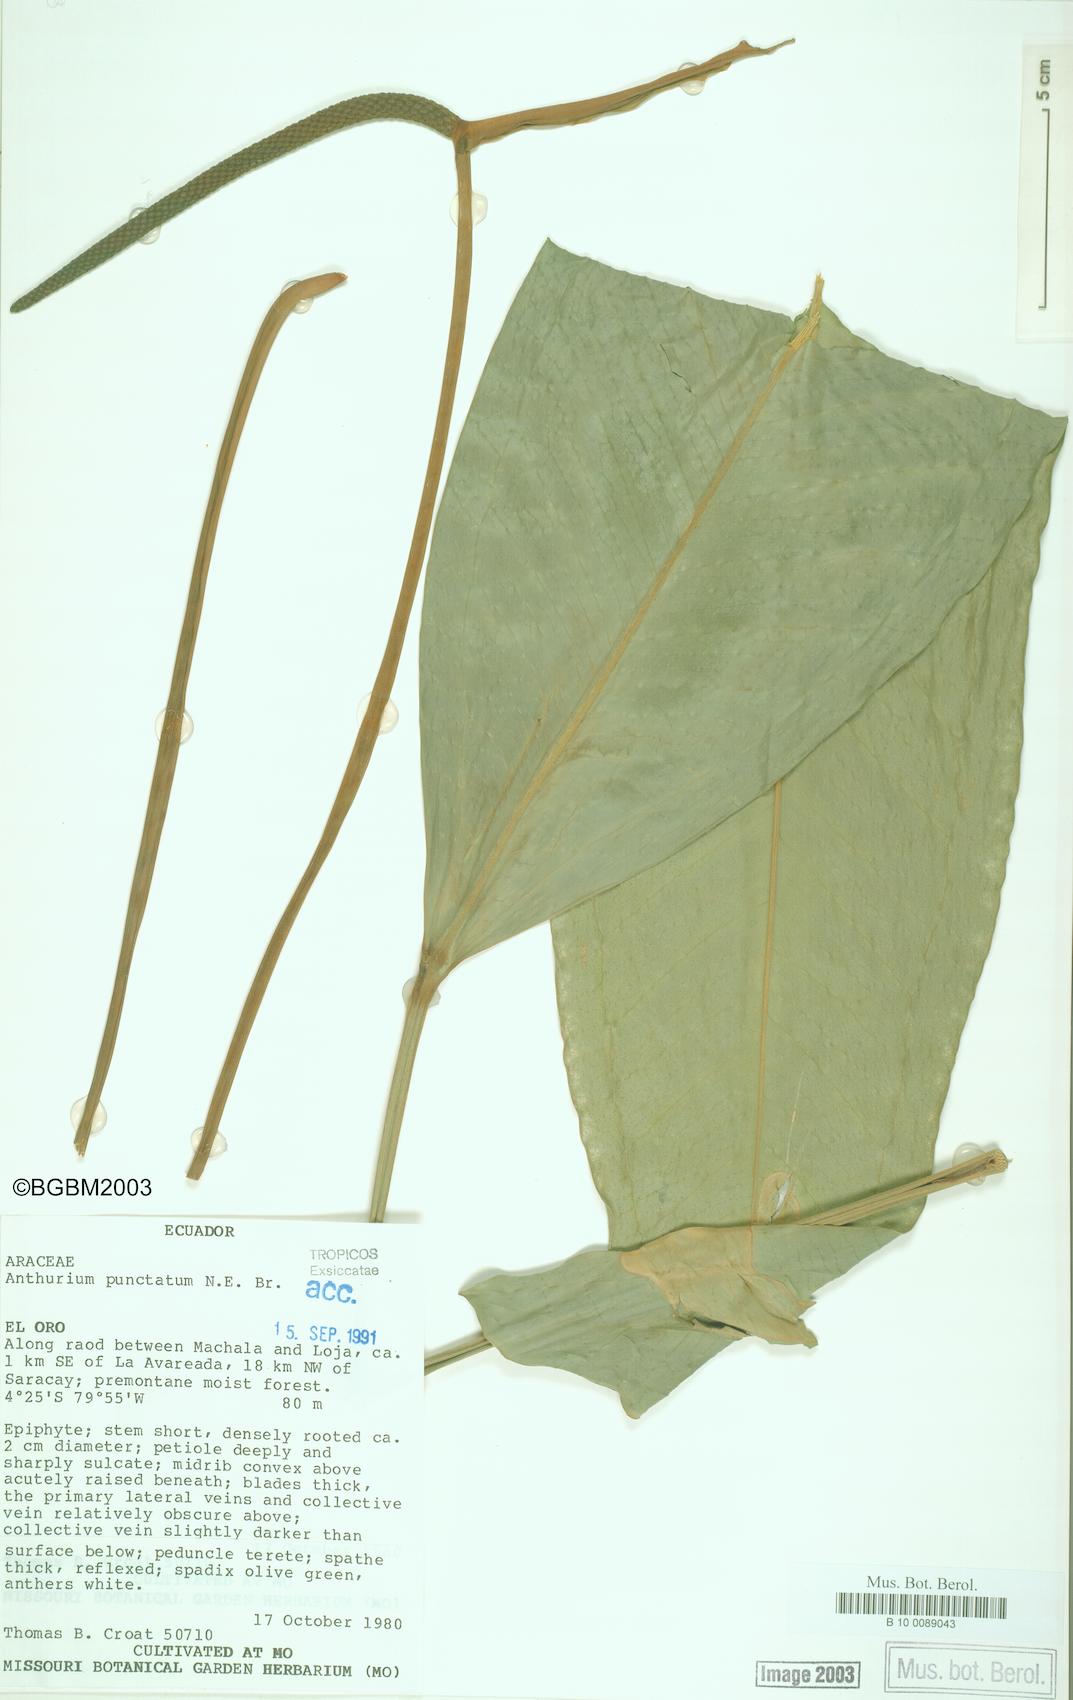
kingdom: Plantae
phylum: Tracheophyta
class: Liliopsida
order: Alismatales
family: Araceae
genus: Anthurium
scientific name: Anthurium punctatum
